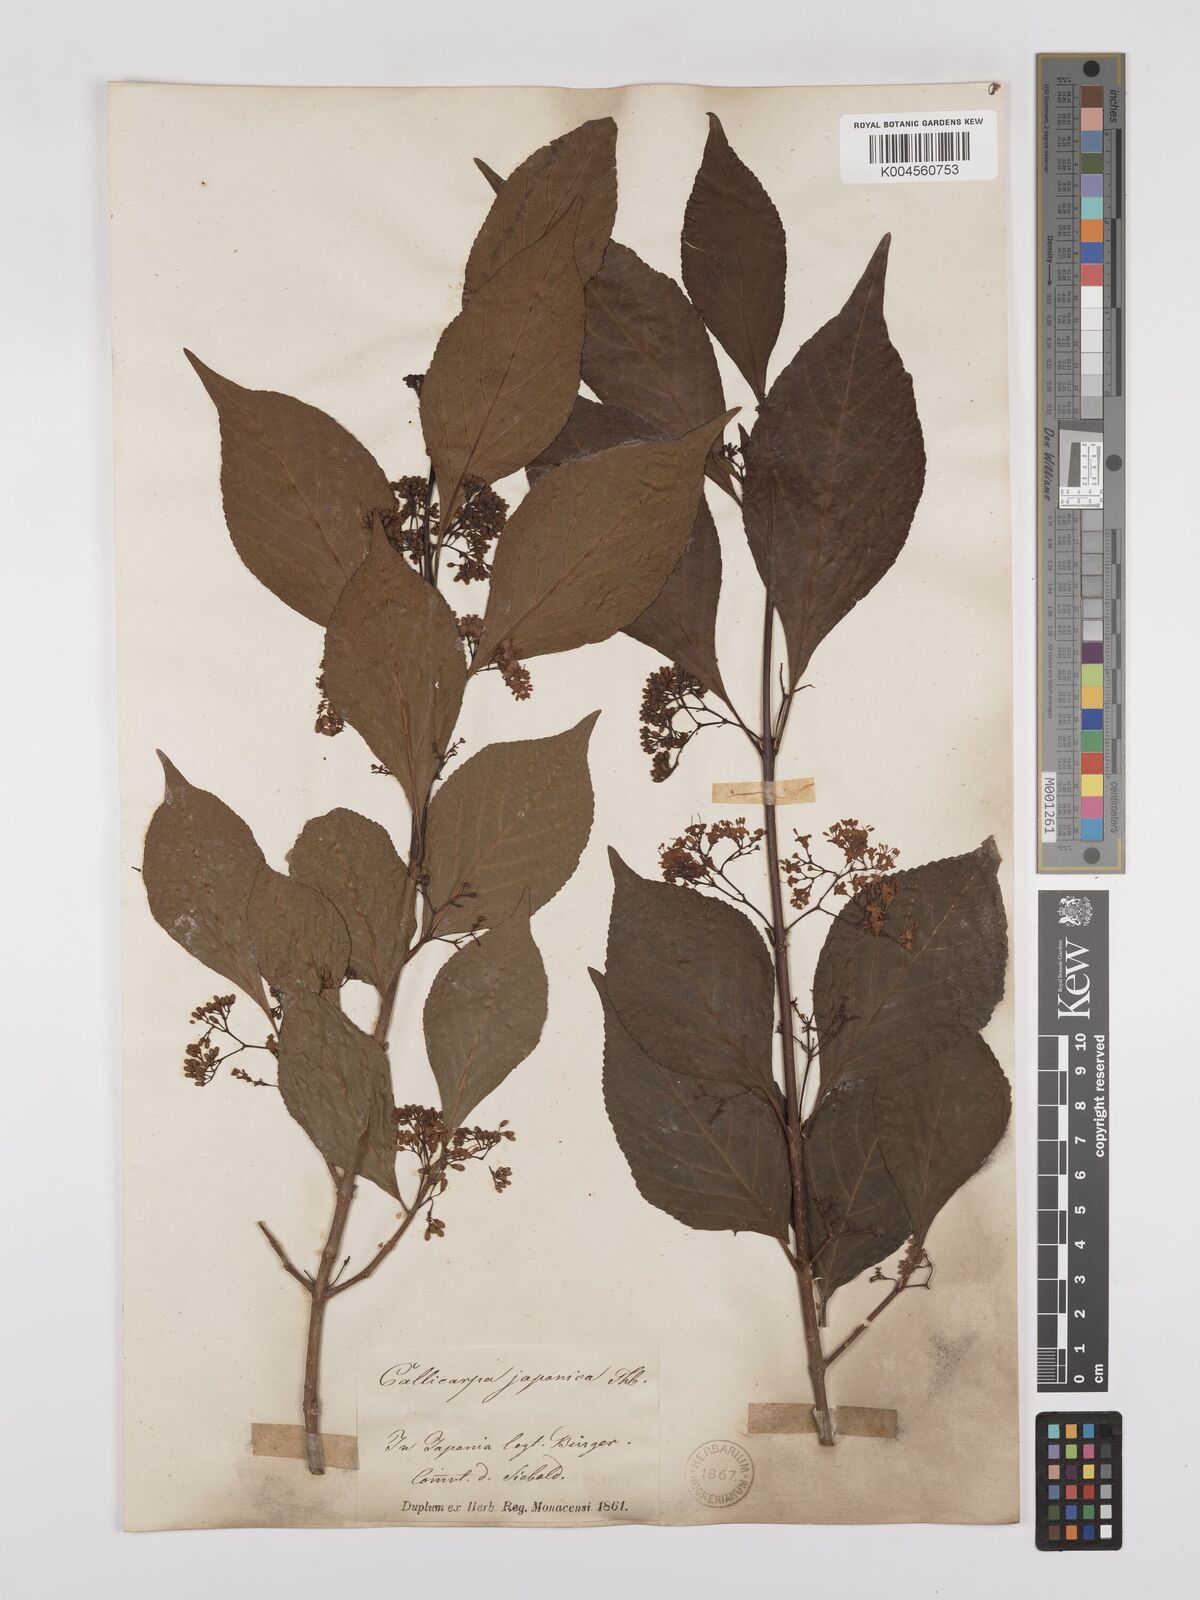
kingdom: Plantae
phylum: Tracheophyta
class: Magnoliopsida
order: Lamiales
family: Lamiaceae
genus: Callicarpa
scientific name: Callicarpa japonica
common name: Japanese beauty-berry
